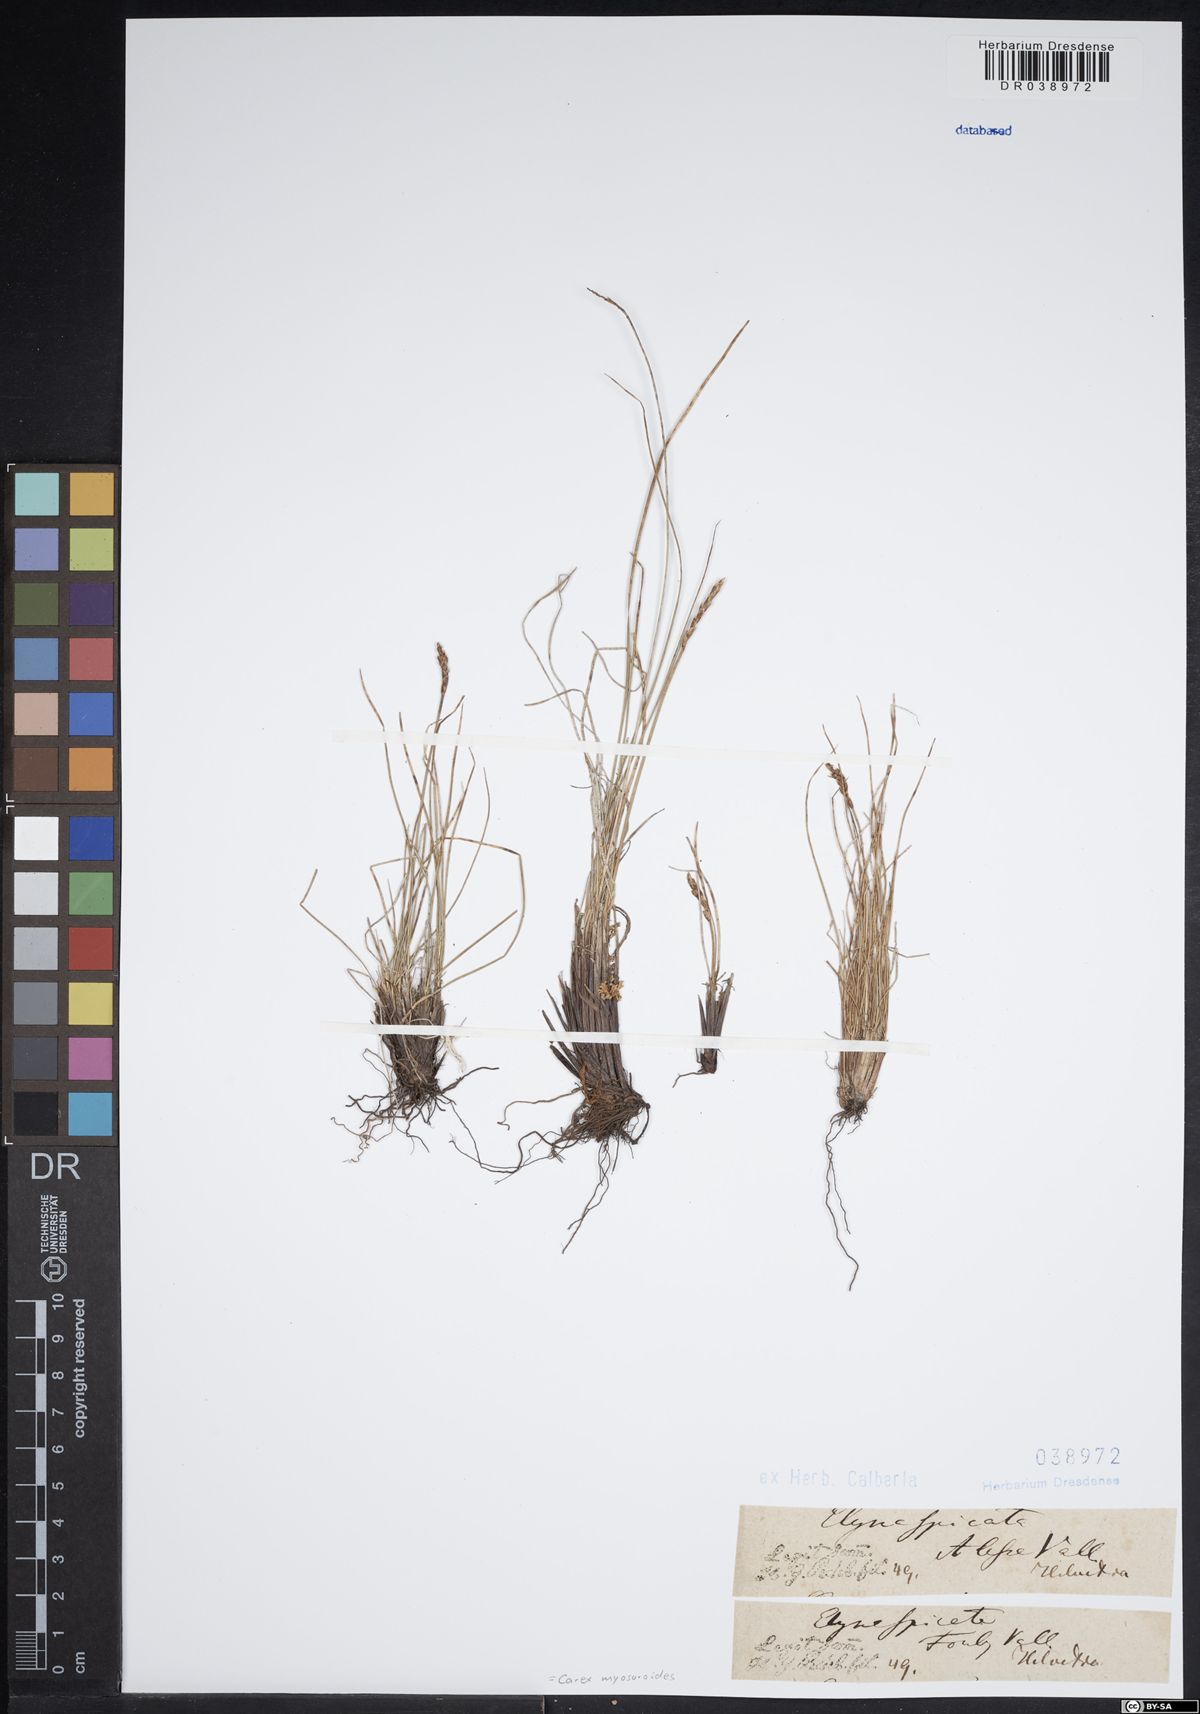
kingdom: Plantae
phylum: Tracheophyta
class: Liliopsida
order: Poales
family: Cyperaceae
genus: Carex
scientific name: Carex myosuroides
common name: Bellard's bog sedge
